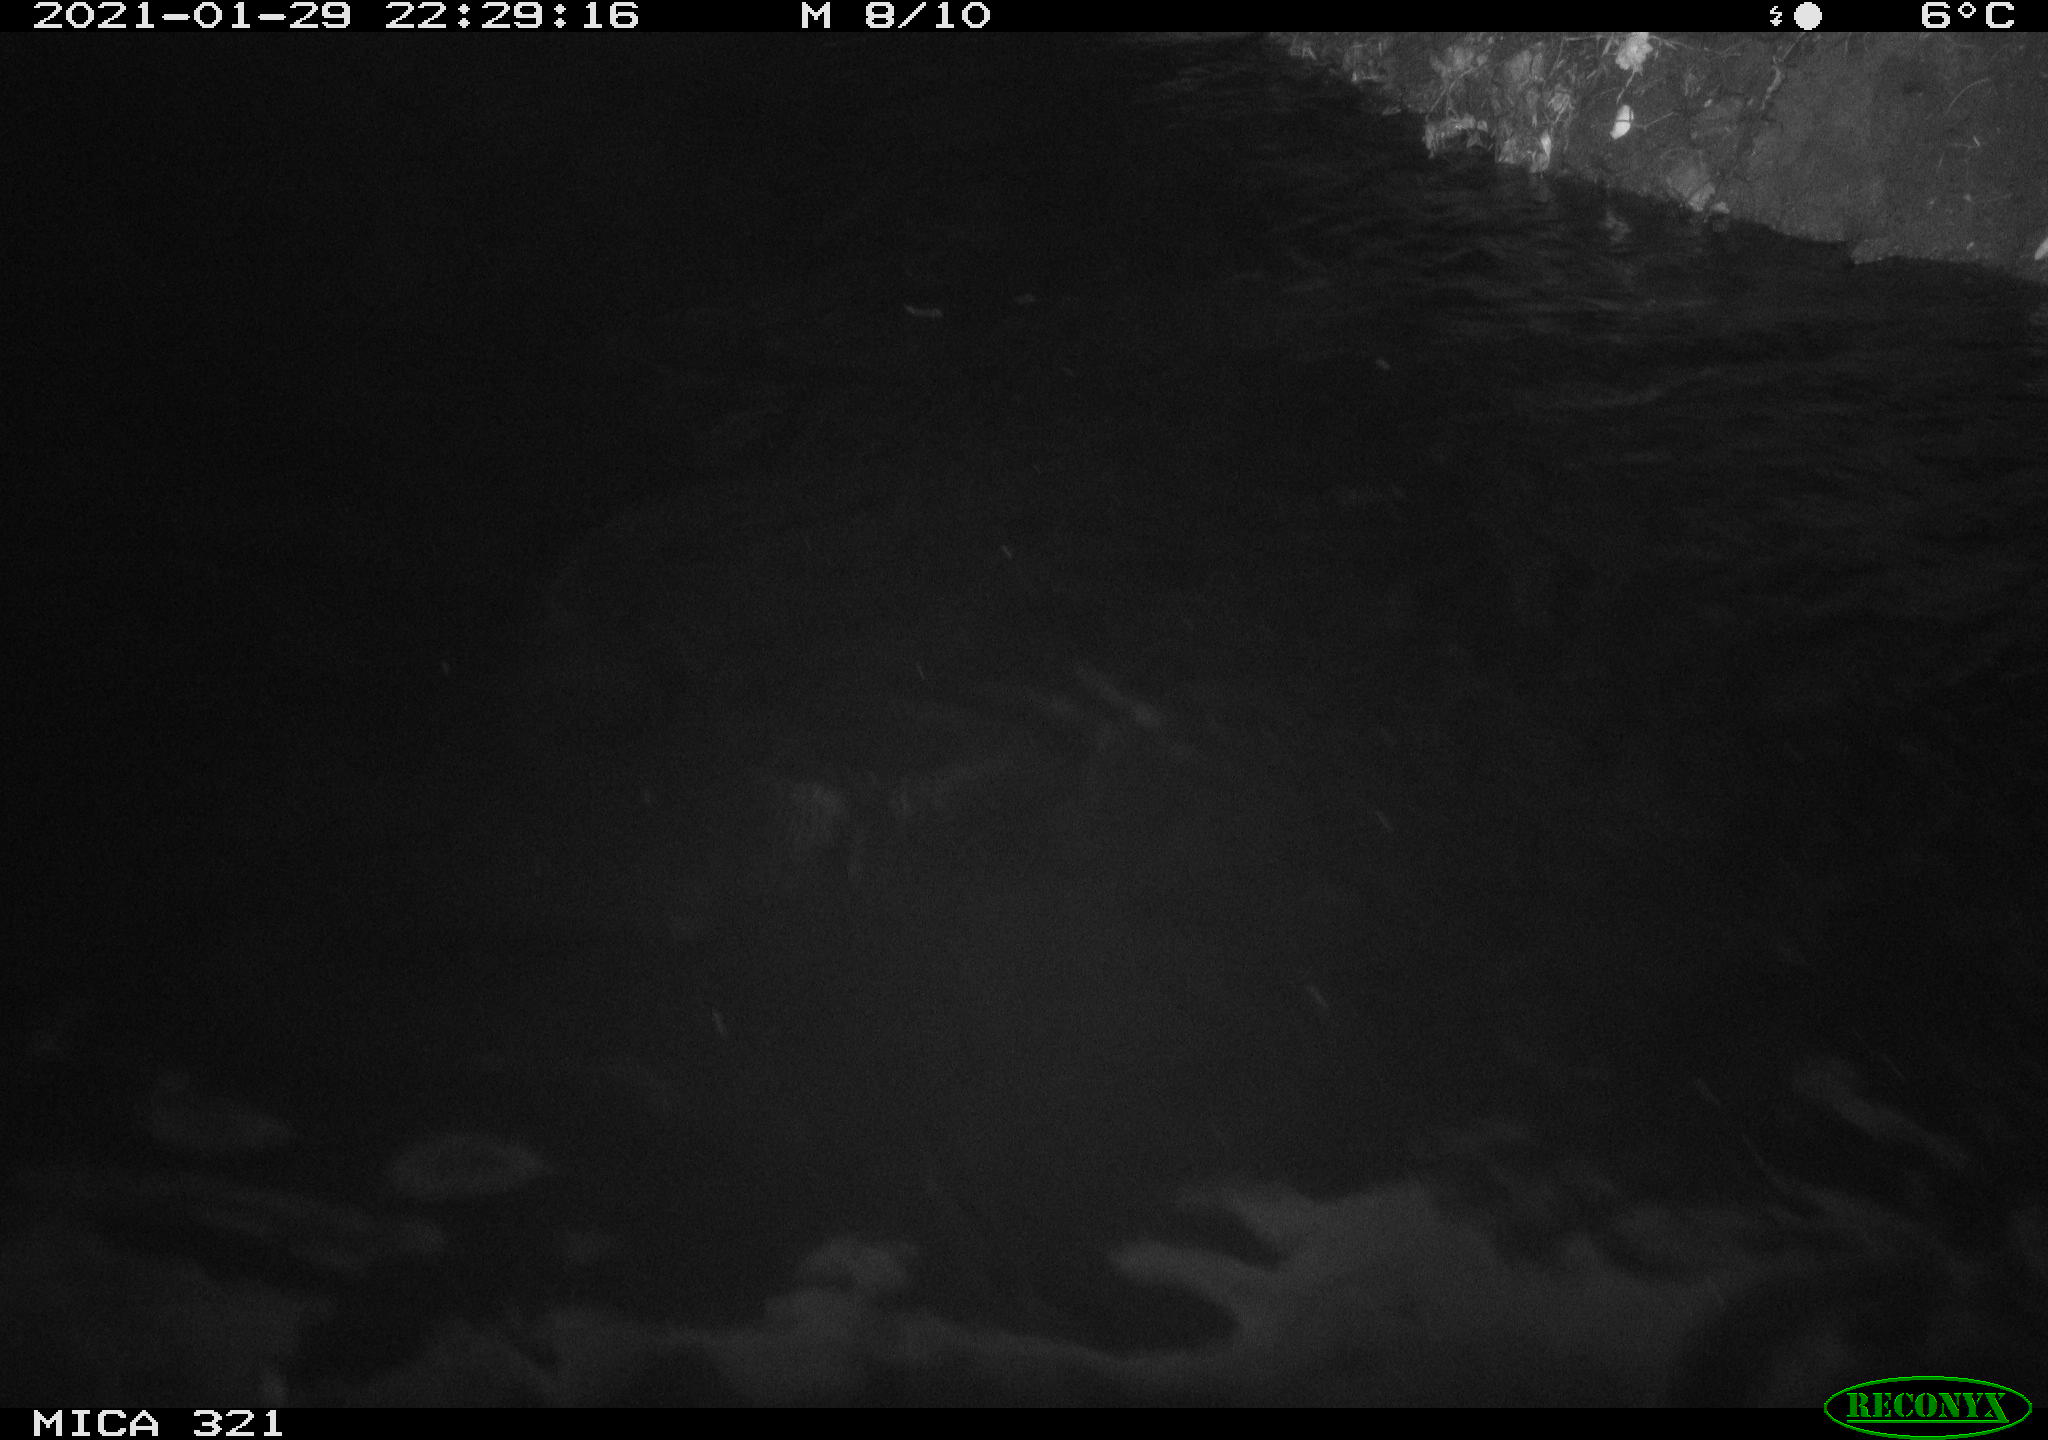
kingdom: Animalia
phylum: Chordata
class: Aves
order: Anseriformes
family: Anatidae
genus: Anas
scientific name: Anas platyrhynchos
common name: Mallard
